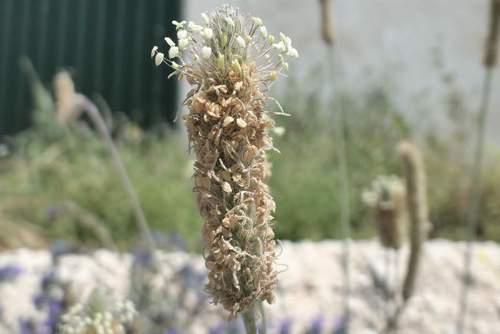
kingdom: Plantae
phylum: Tracheophyta
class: Magnoliopsida
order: Lamiales
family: Plantaginaceae
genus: Plantago
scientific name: Plantago lanceolata
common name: Ribwort plantain
